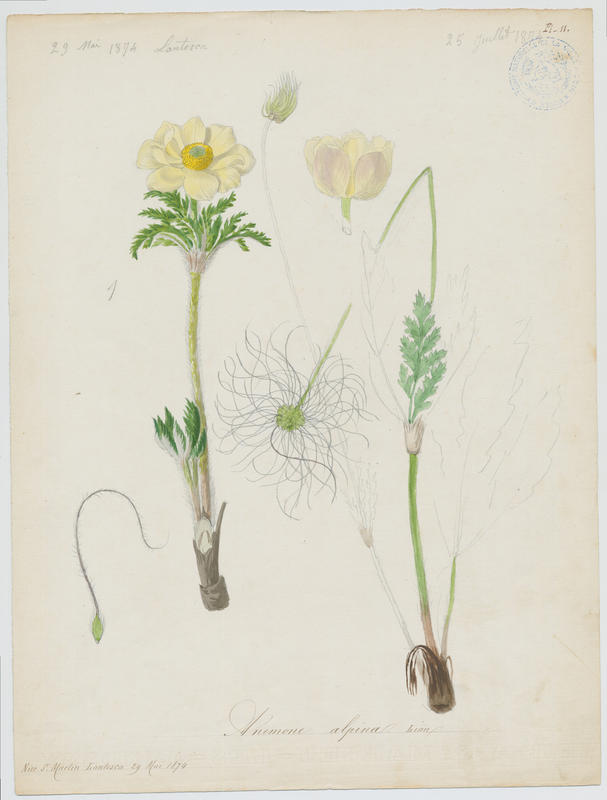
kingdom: Plantae
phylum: Tracheophyta
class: Magnoliopsida
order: Ranunculales
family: Ranunculaceae
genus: Pulsatilla
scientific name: Pulsatilla alpina
